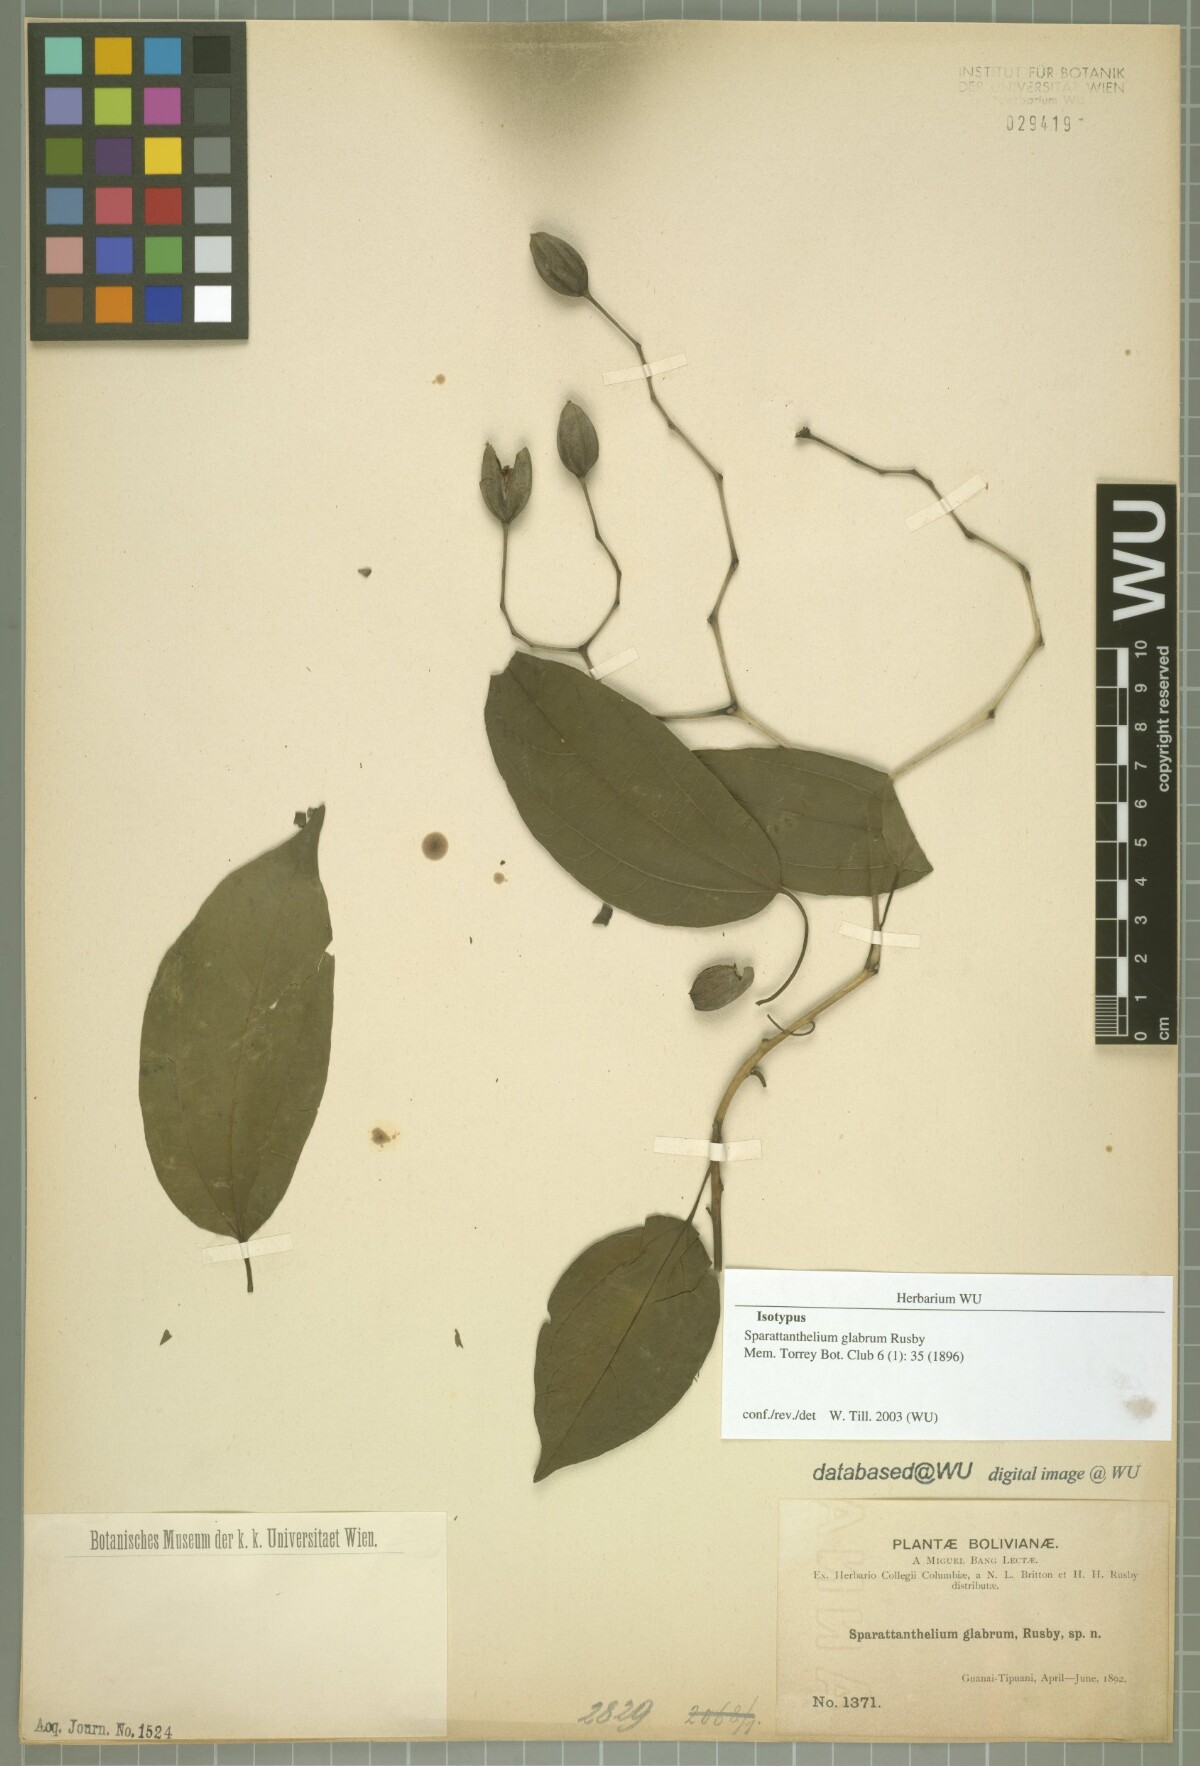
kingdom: Plantae
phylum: Tracheophyta
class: Magnoliopsida
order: Laurales
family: Hernandiaceae
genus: Sparattanthelium
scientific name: Sparattanthelium glabrum
